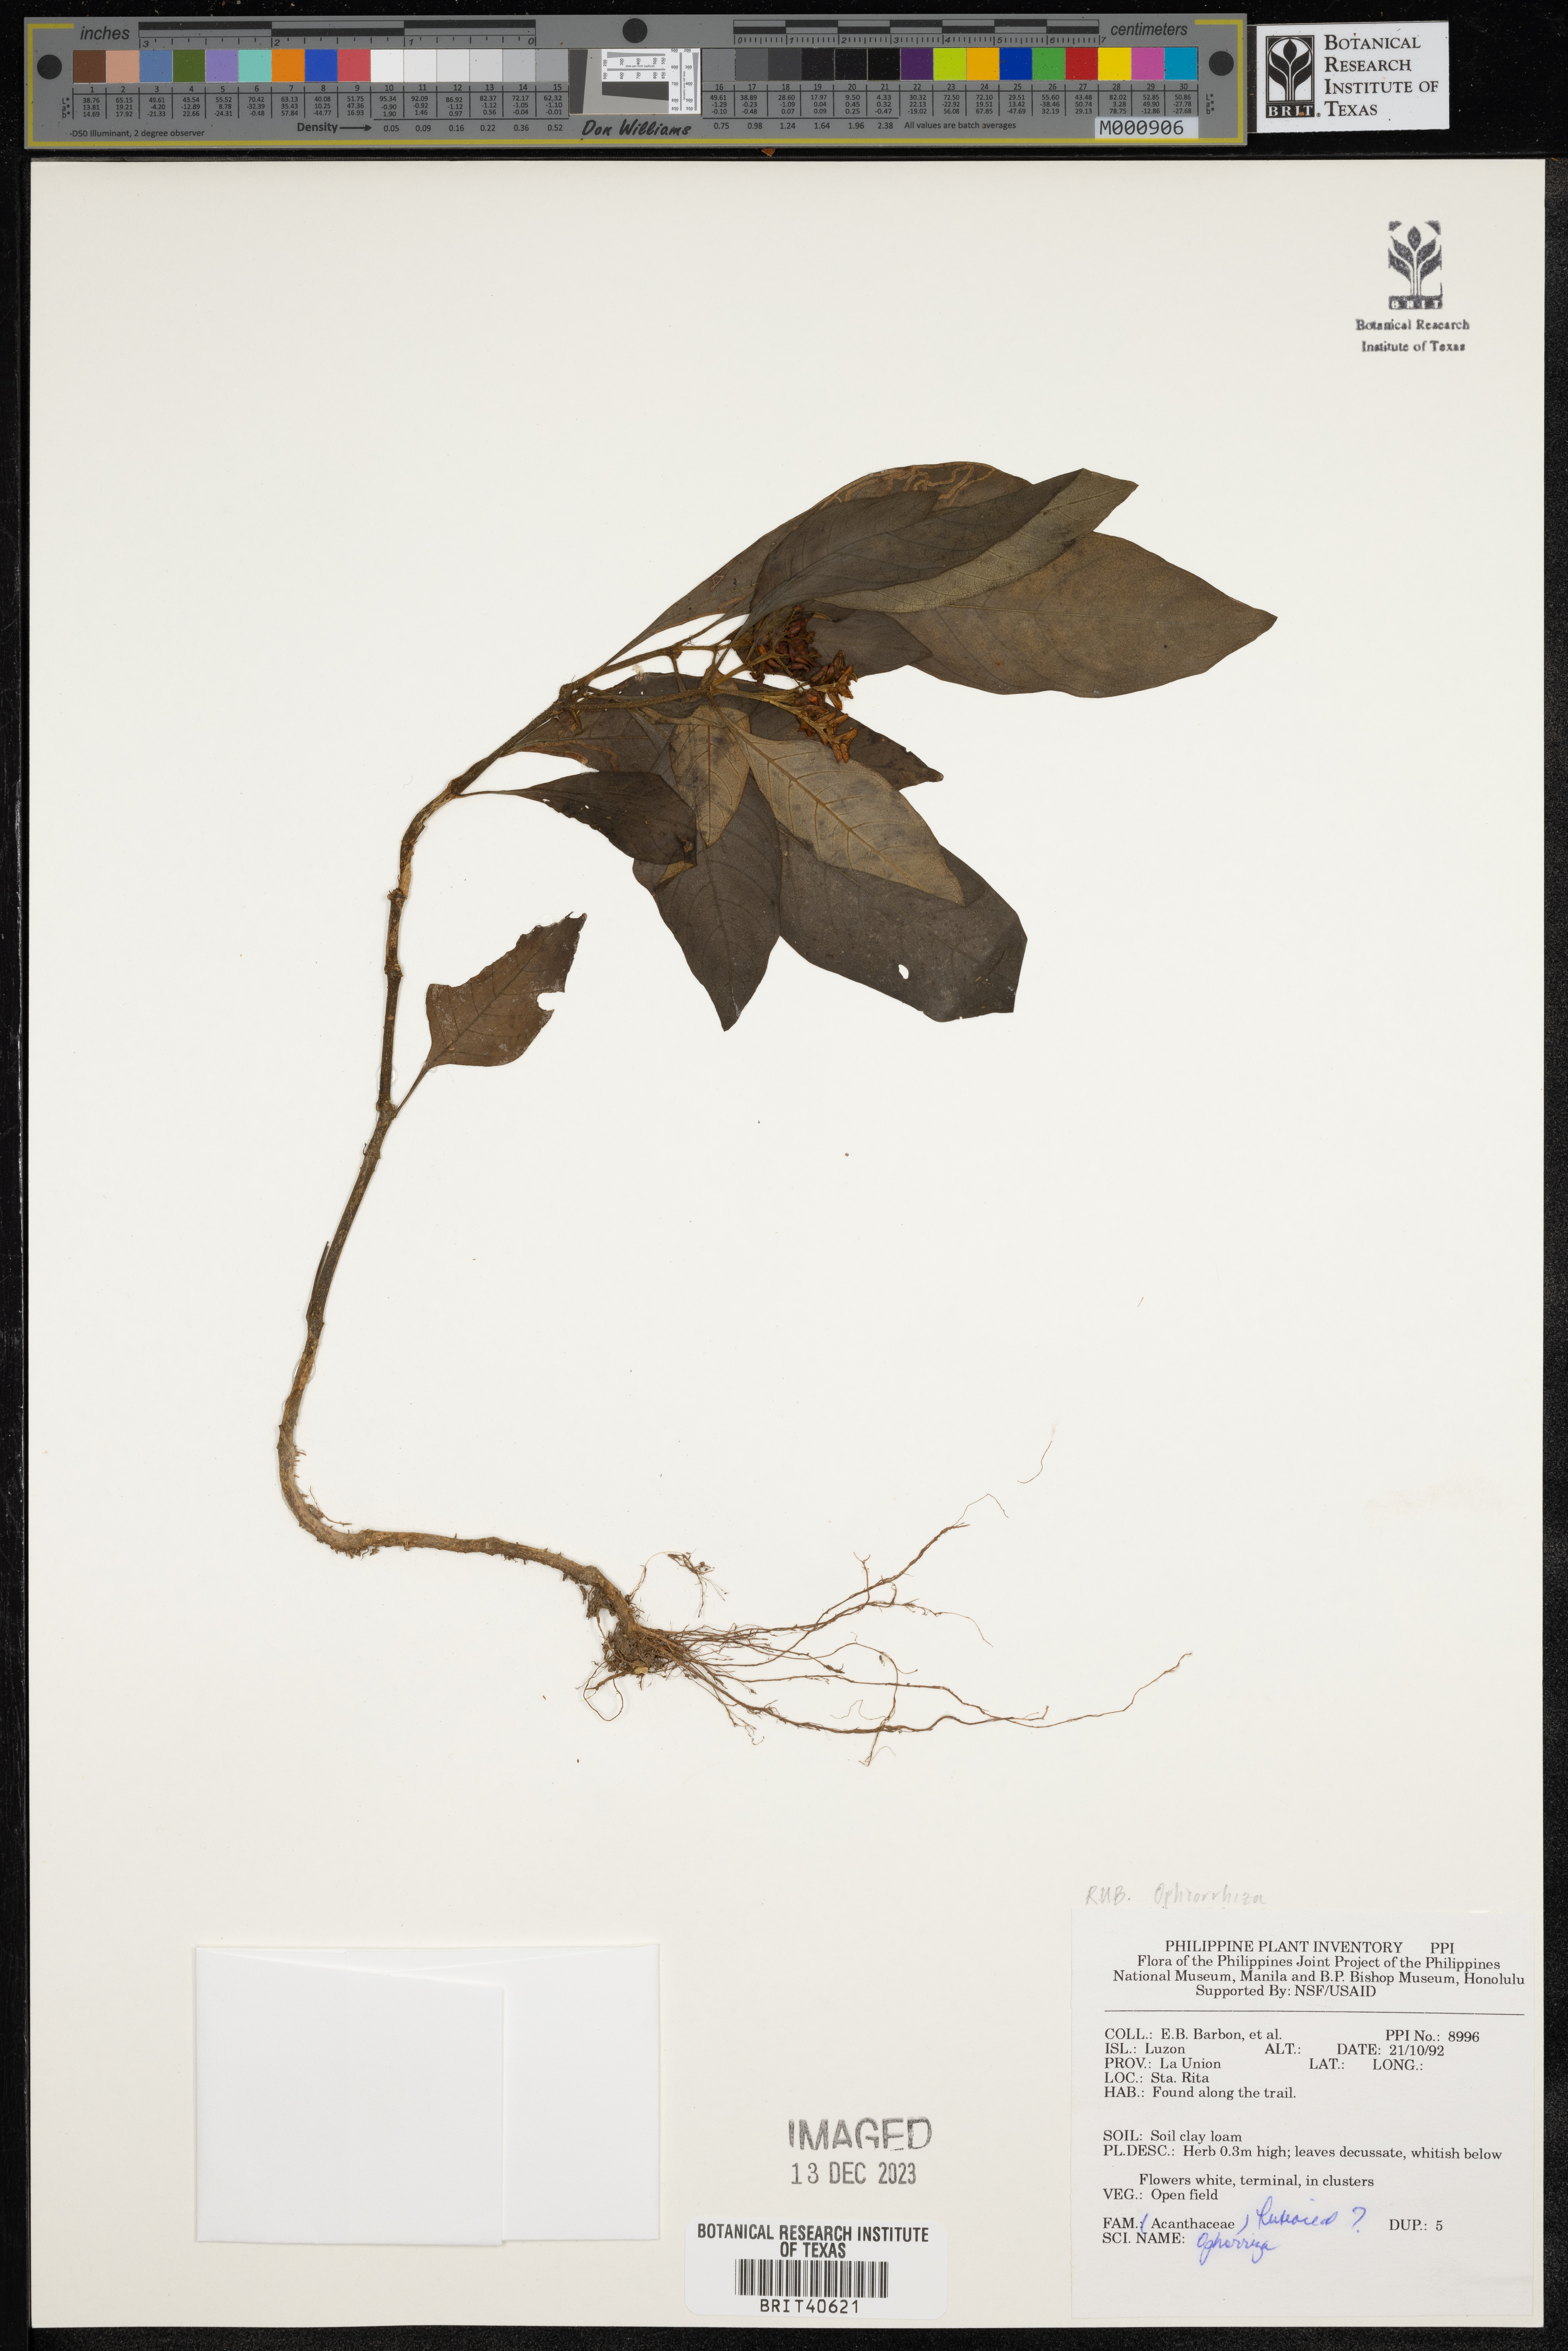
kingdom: Plantae
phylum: Tracheophyta
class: Magnoliopsida
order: Gentianales
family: Rubiaceae
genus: Ophiorrhiza
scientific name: Ophiorrhiza
